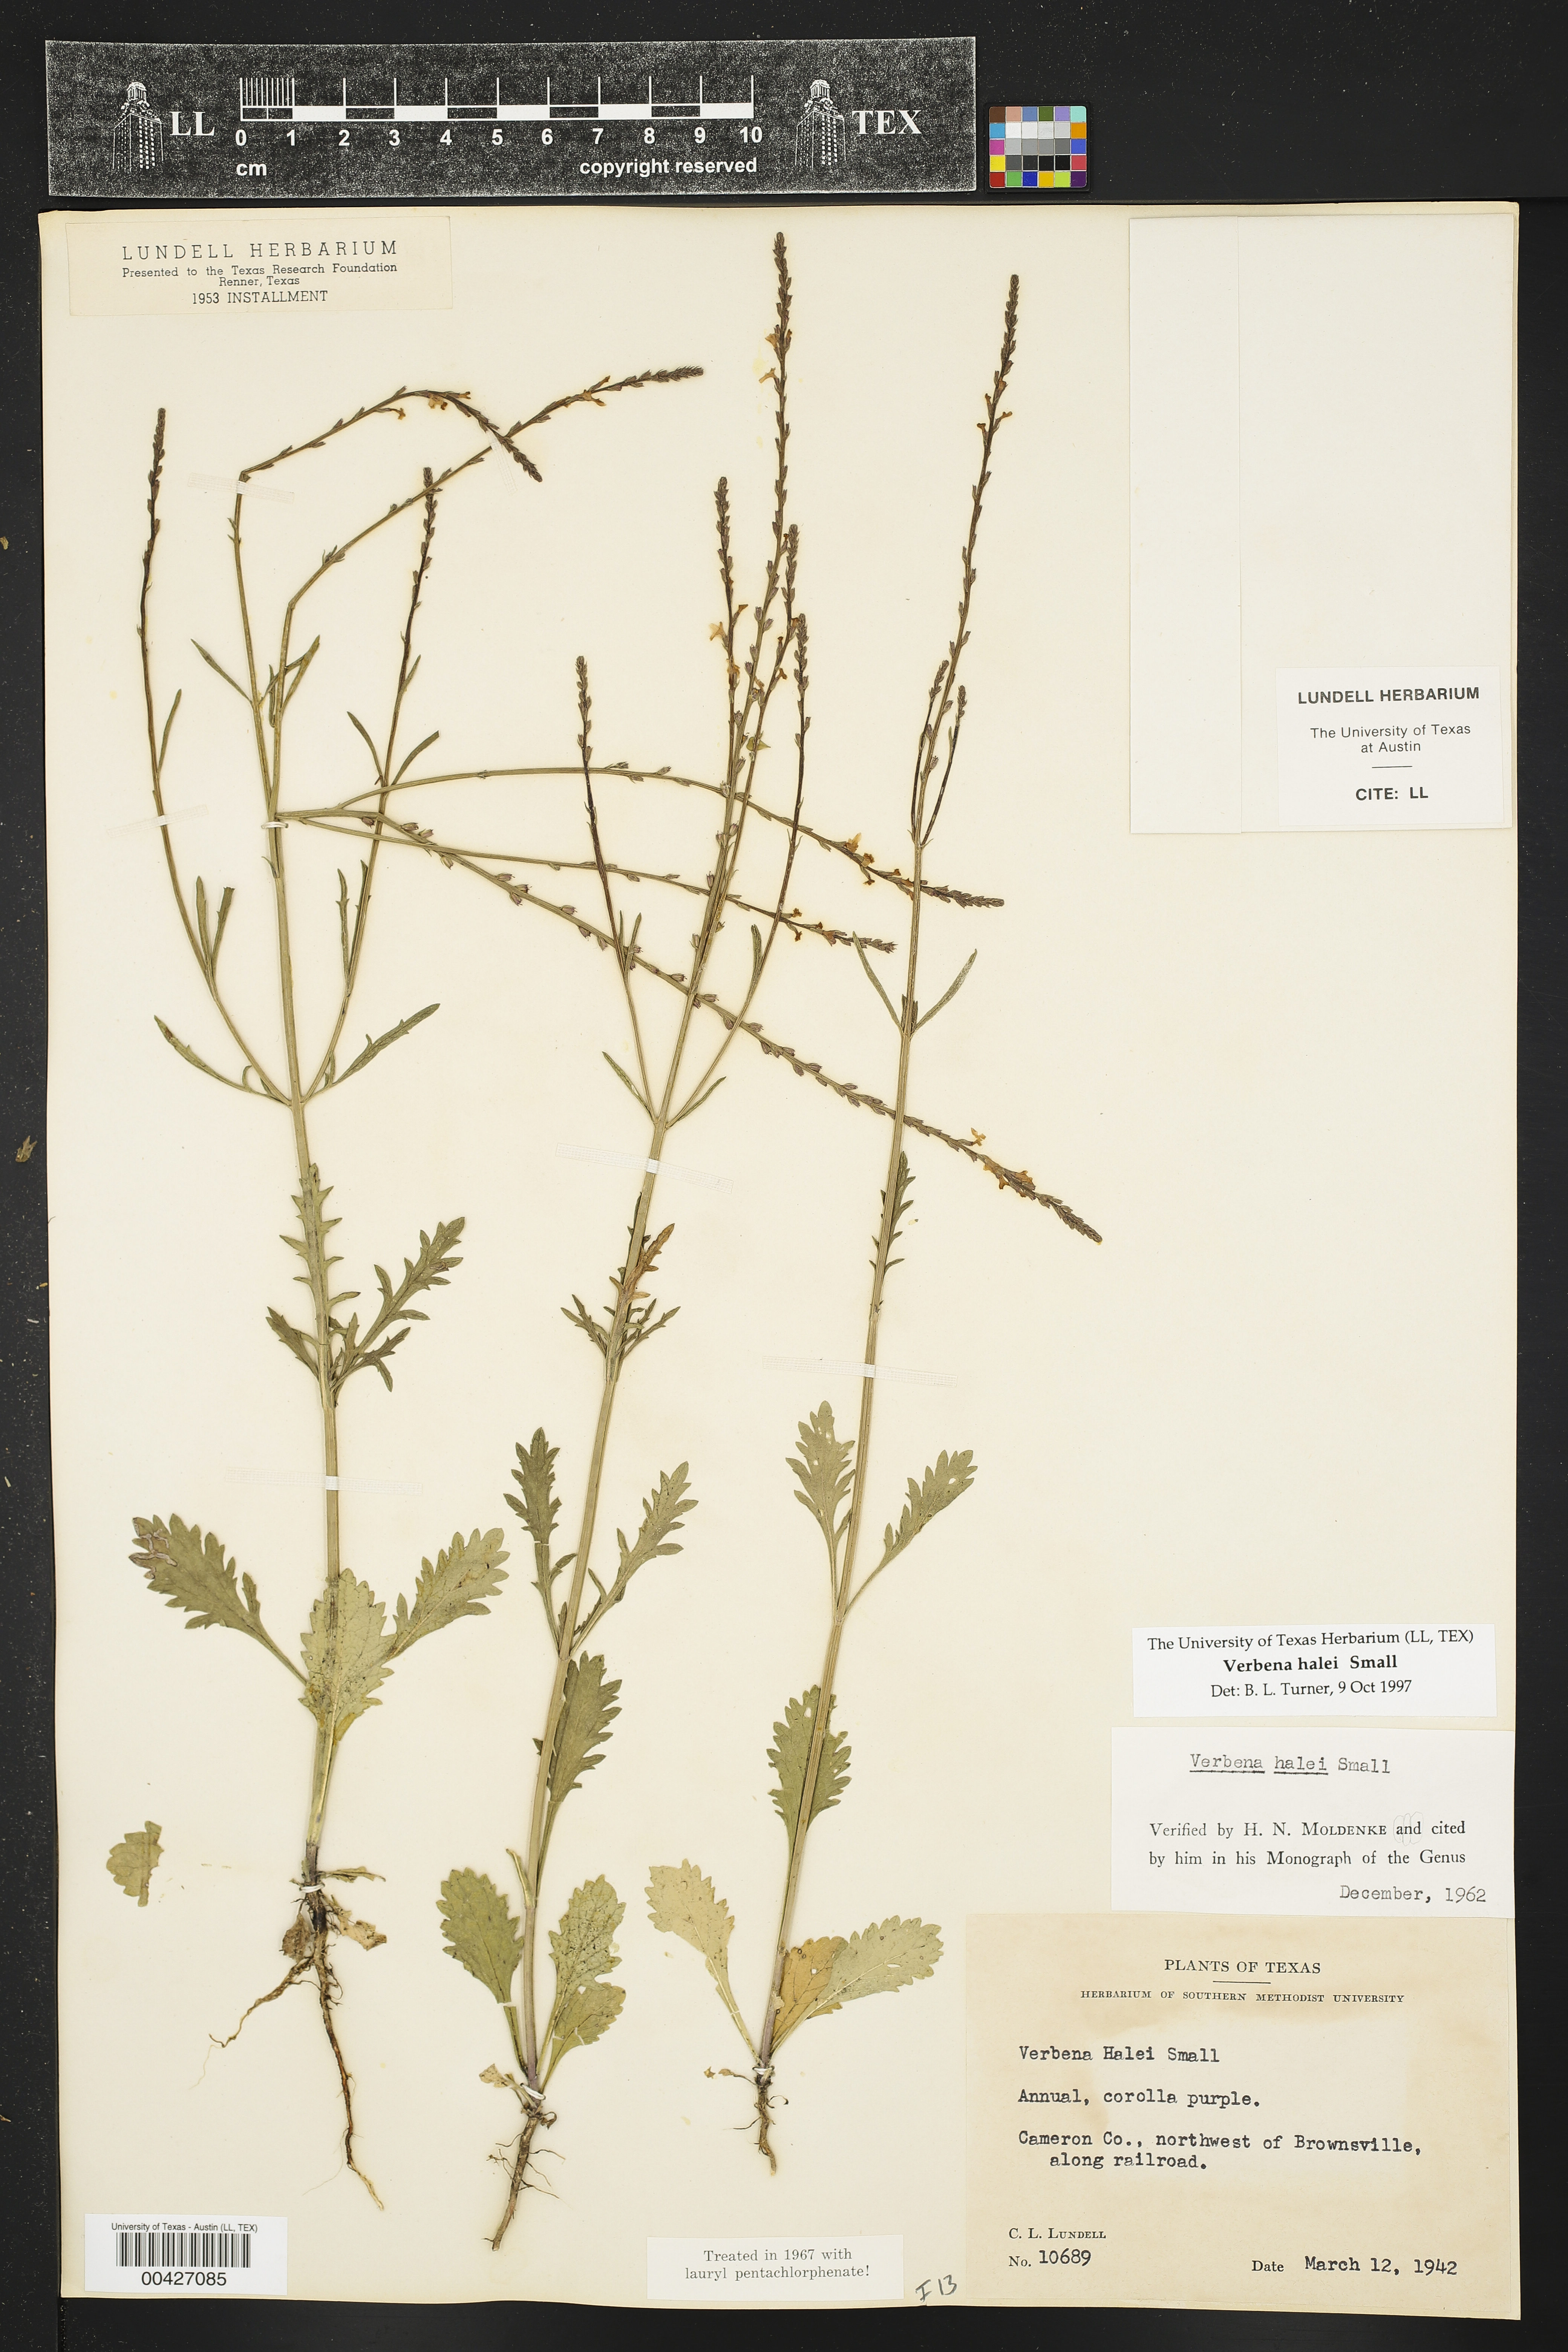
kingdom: Plantae
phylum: Tracheophyta
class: Magnoliopsida
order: Lamiales
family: Verbenaceae
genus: Verbena
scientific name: Verbena halei
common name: Texas vervain
